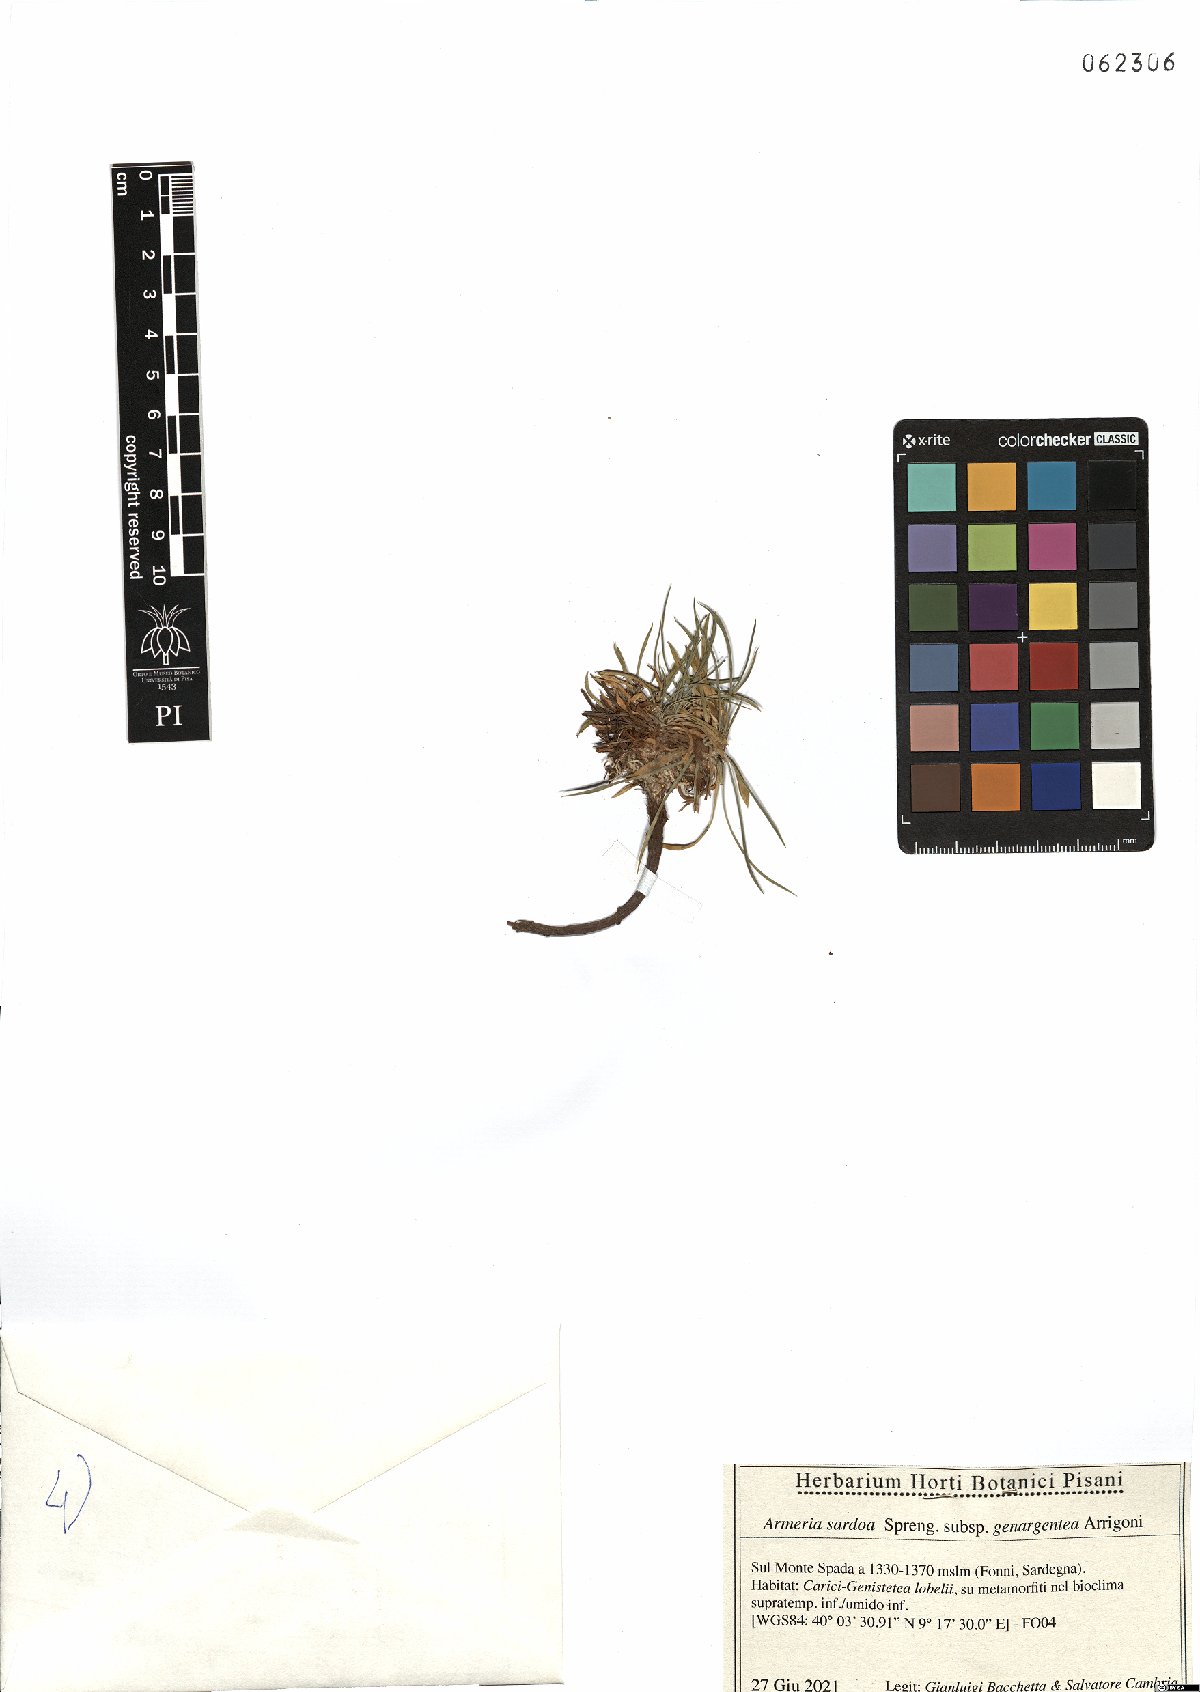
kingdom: Plantae
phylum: Tracheophyta
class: Magnoliopsida
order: Caryophyllales
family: Plumbaginaceae
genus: Armeria
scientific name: Armeria sardoa
